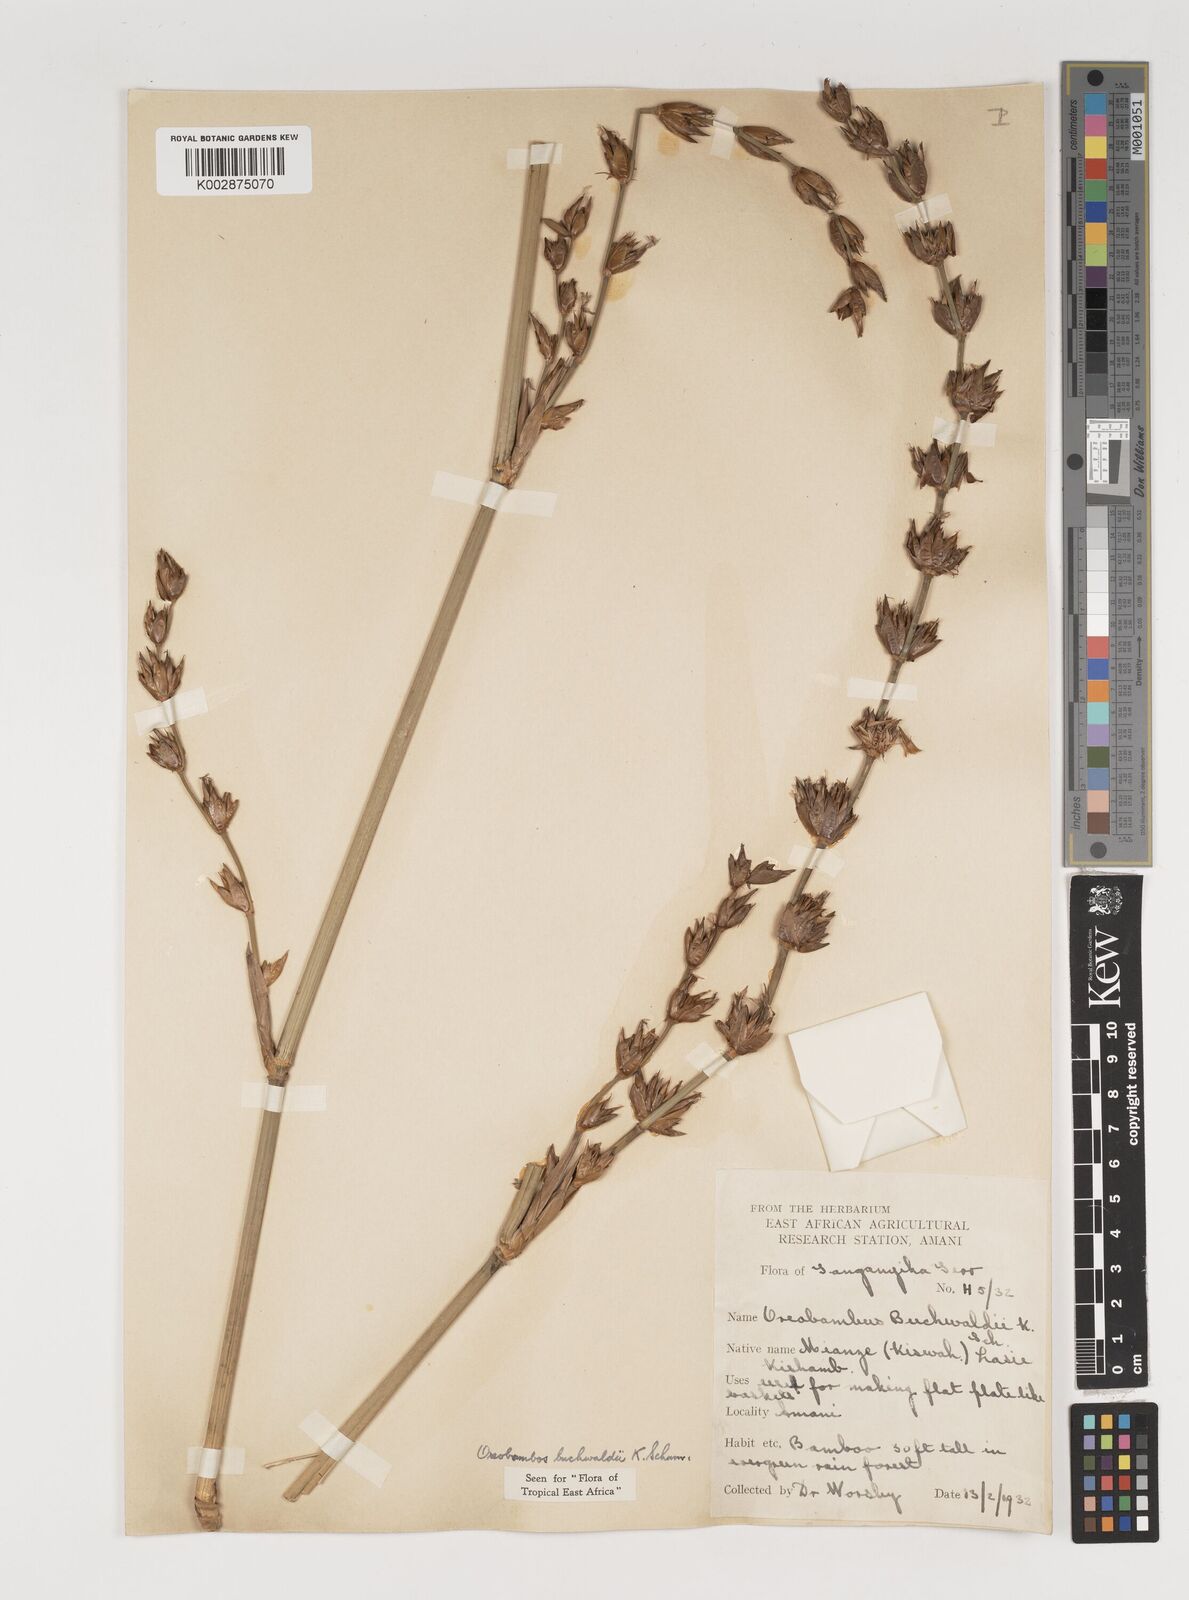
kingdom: Plantae
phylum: Tracheophyta
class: Liliopsida
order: Poales
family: Poaceae
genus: Oreobambos
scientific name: Oreobambos buchwaldii
